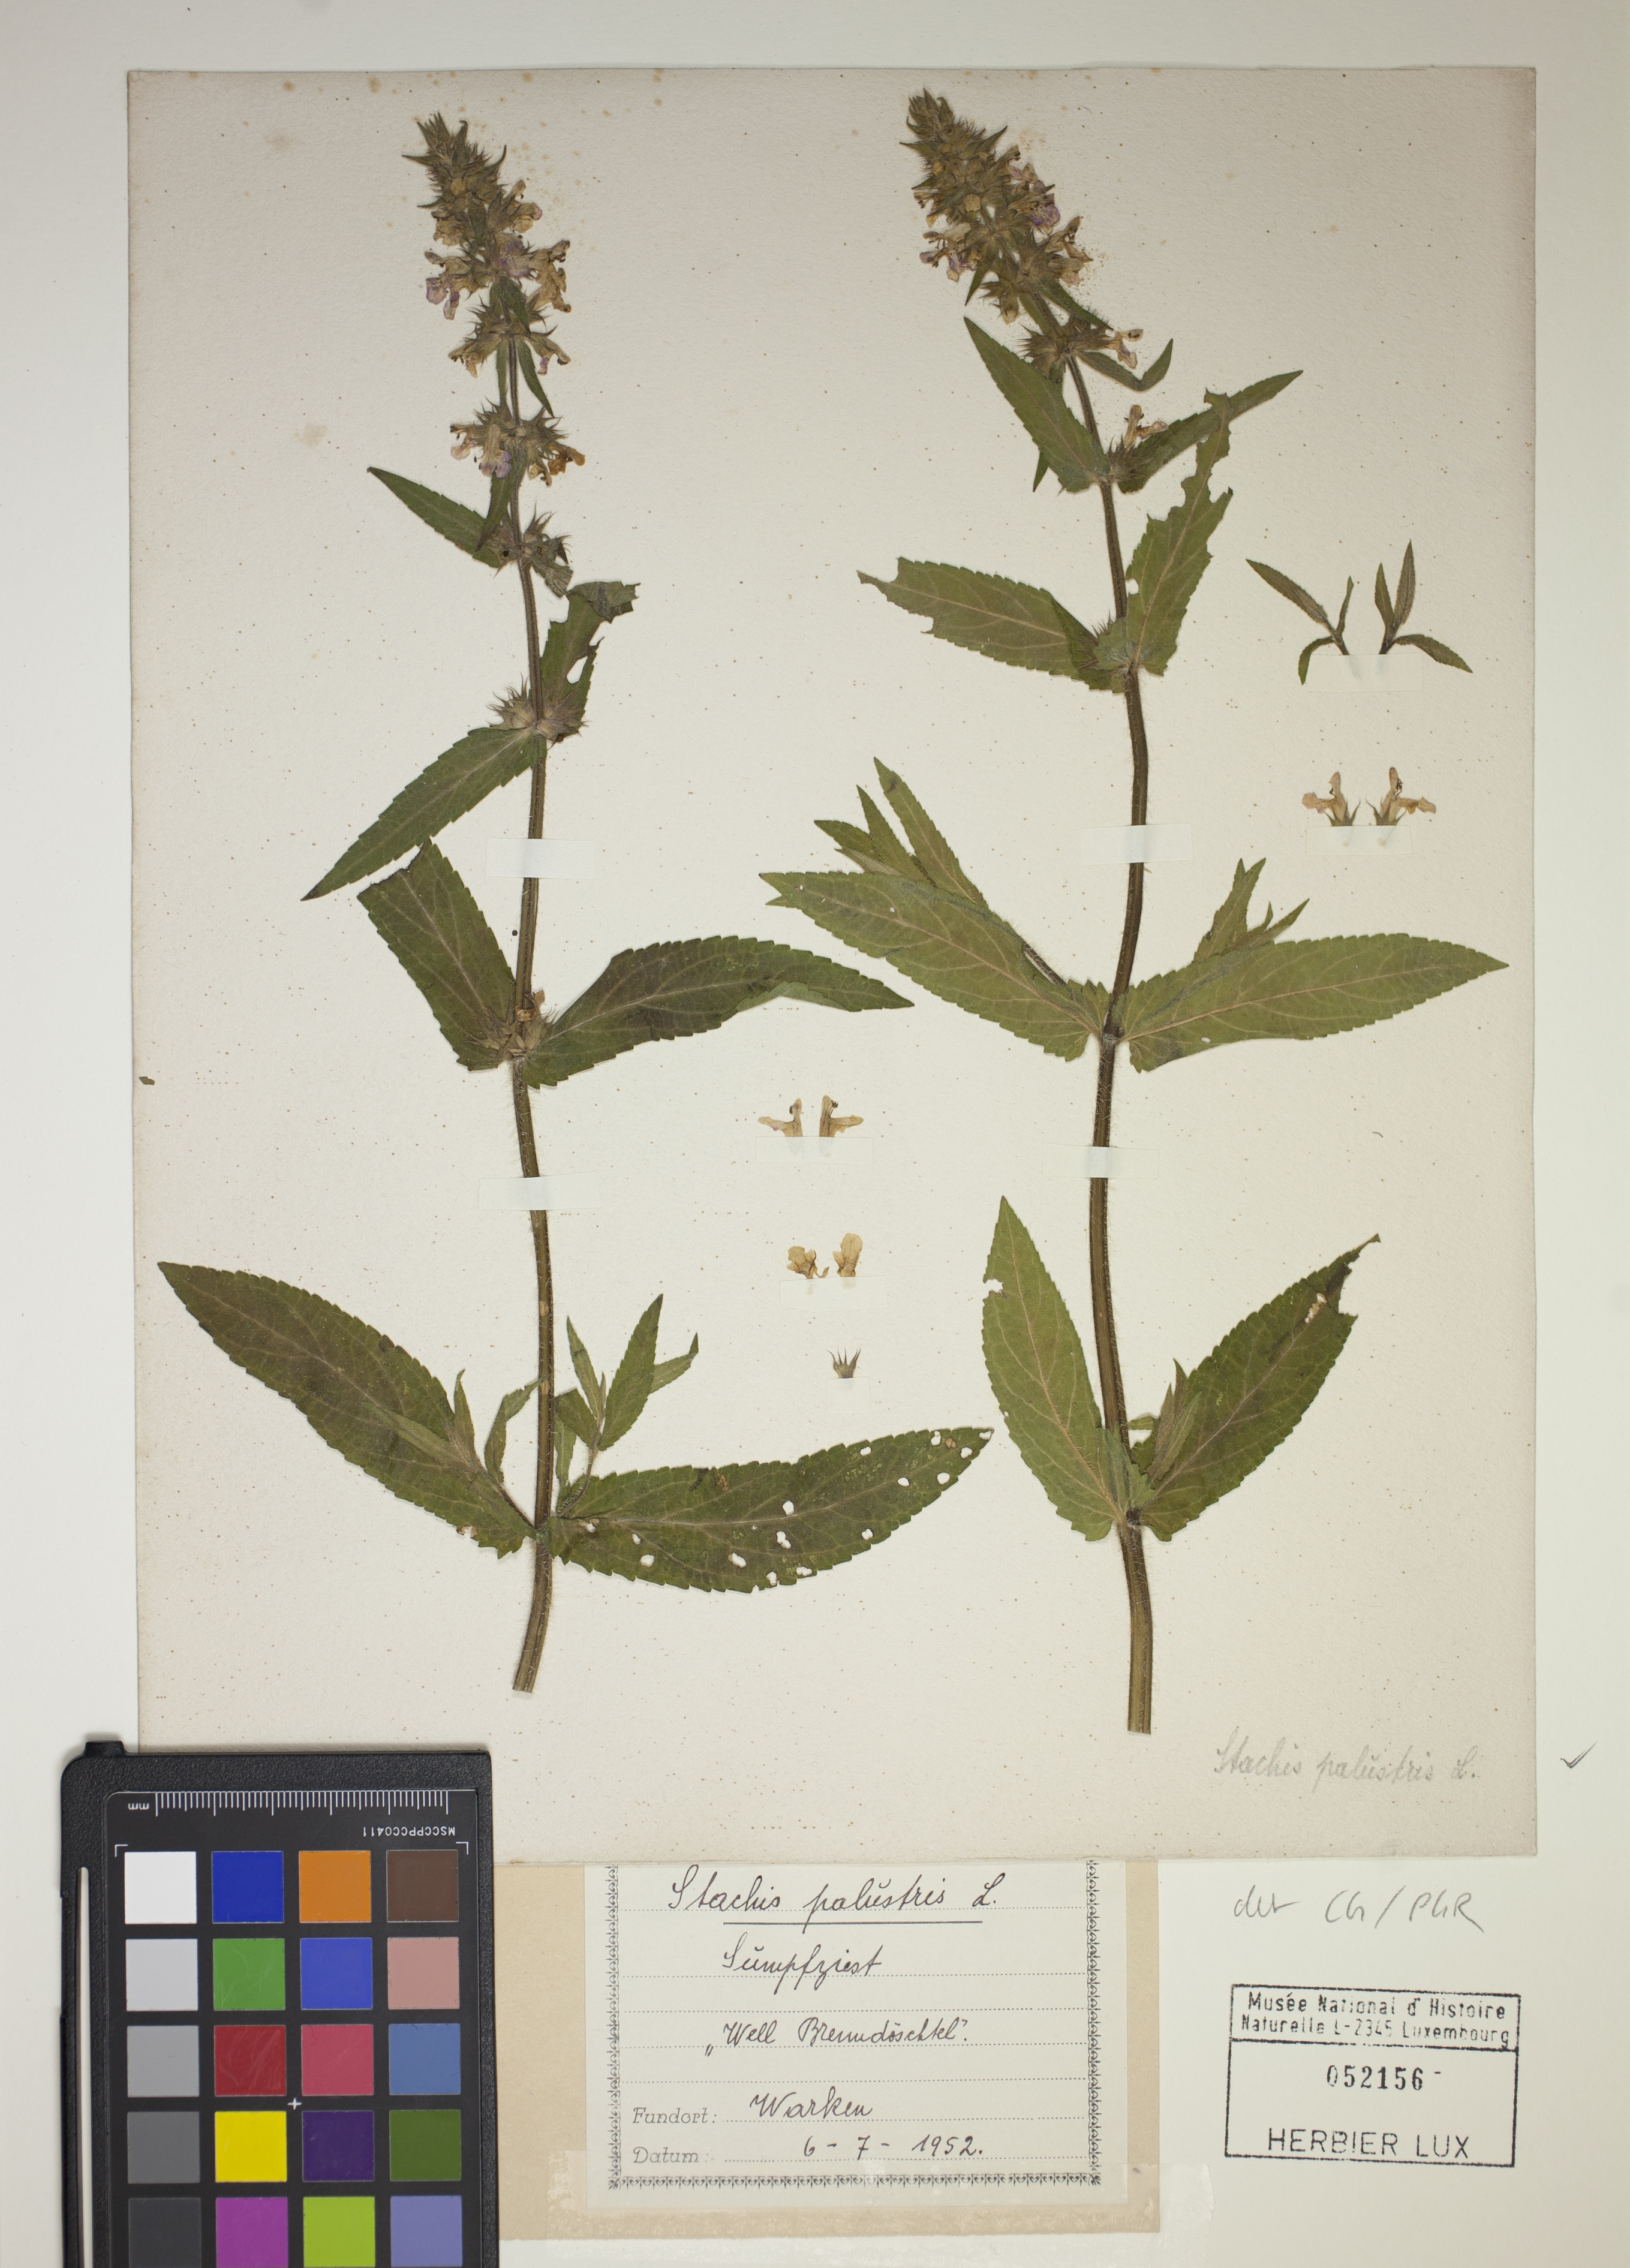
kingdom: Plantae
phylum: Tracheophyta
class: Magnoliopsida
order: Lamiales
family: Lamiaceae
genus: Stachys
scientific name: Stachys palustris
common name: Marsh woundwort
